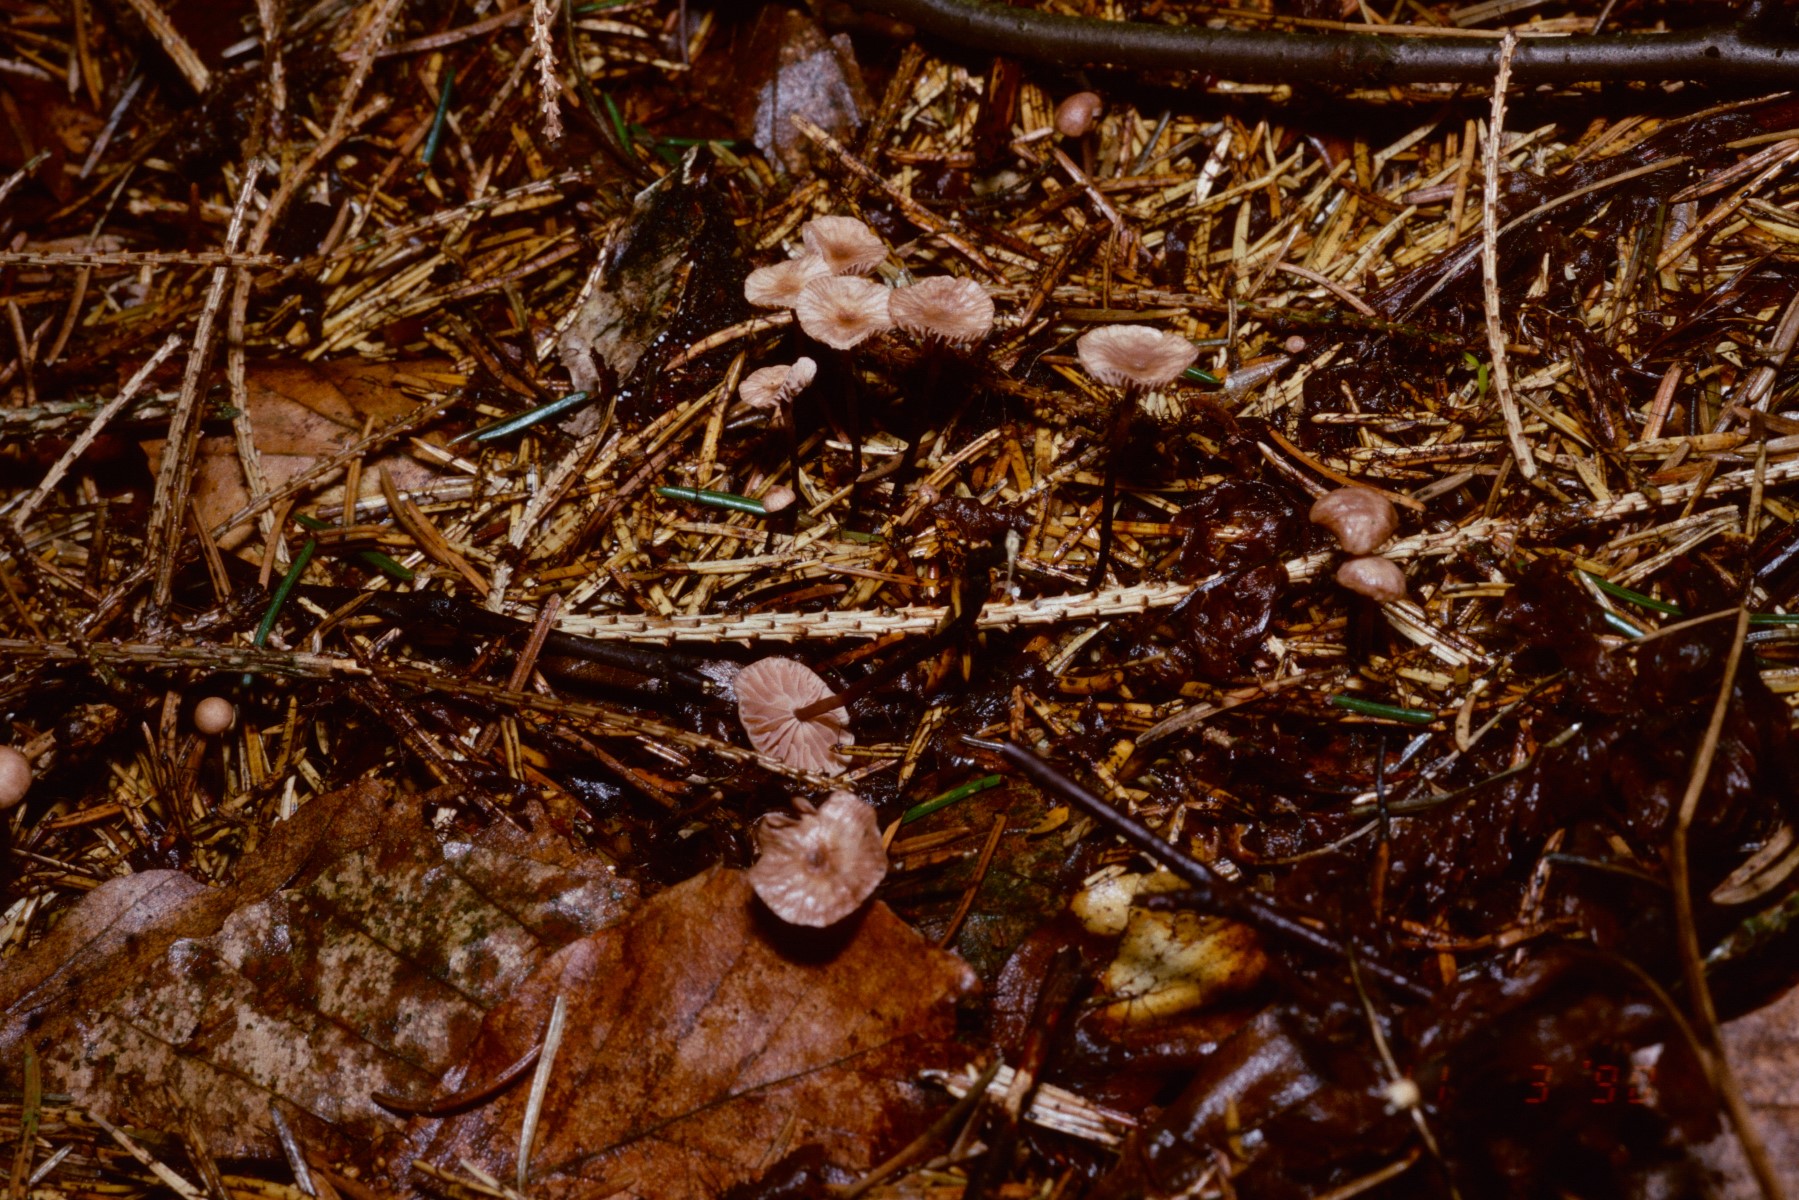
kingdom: Fungi
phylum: Basidiomycota
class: Agaricomycetes
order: Agaricales
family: Omphalotaceae
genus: Paragymnopus
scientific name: Paragymnopus perforans
